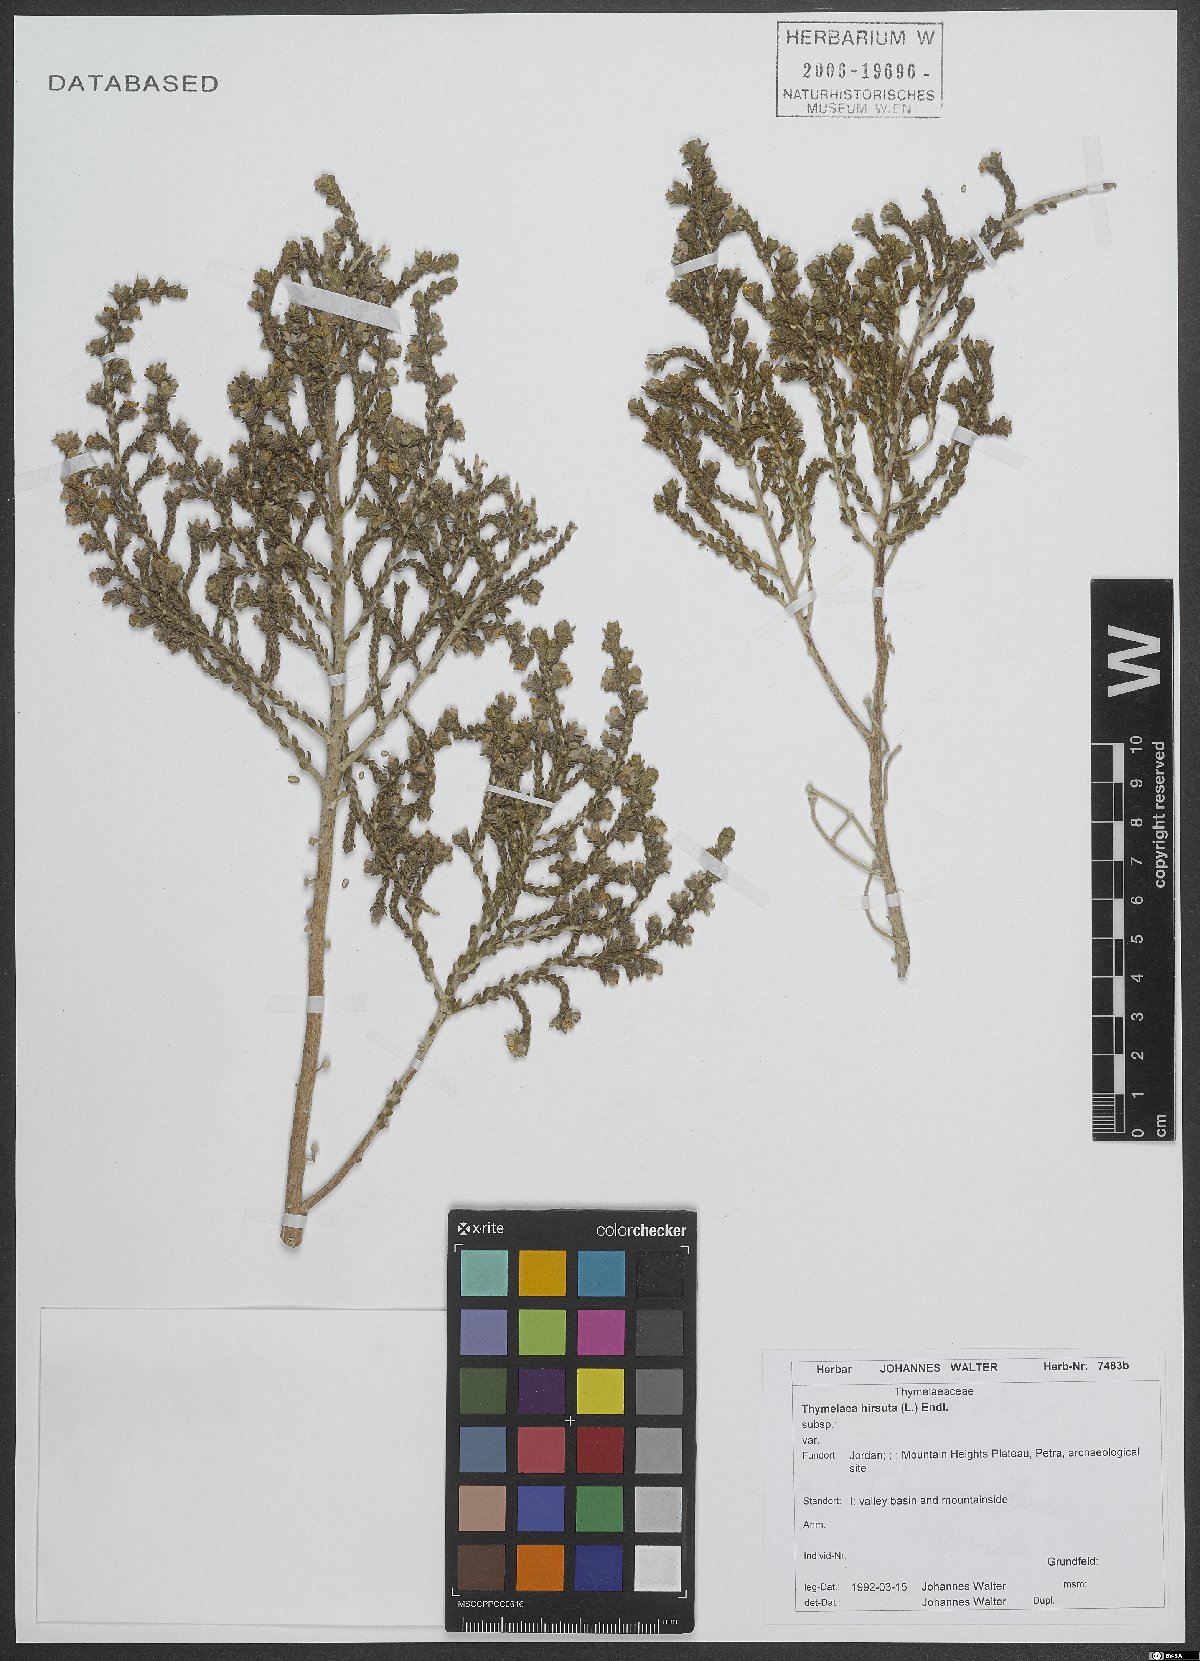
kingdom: Plantae
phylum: Tracheophyta
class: Magnoliopsida
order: Malvales
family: Thymelaeaceae
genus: Thymelaea
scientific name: Thymelaea hirsuta
